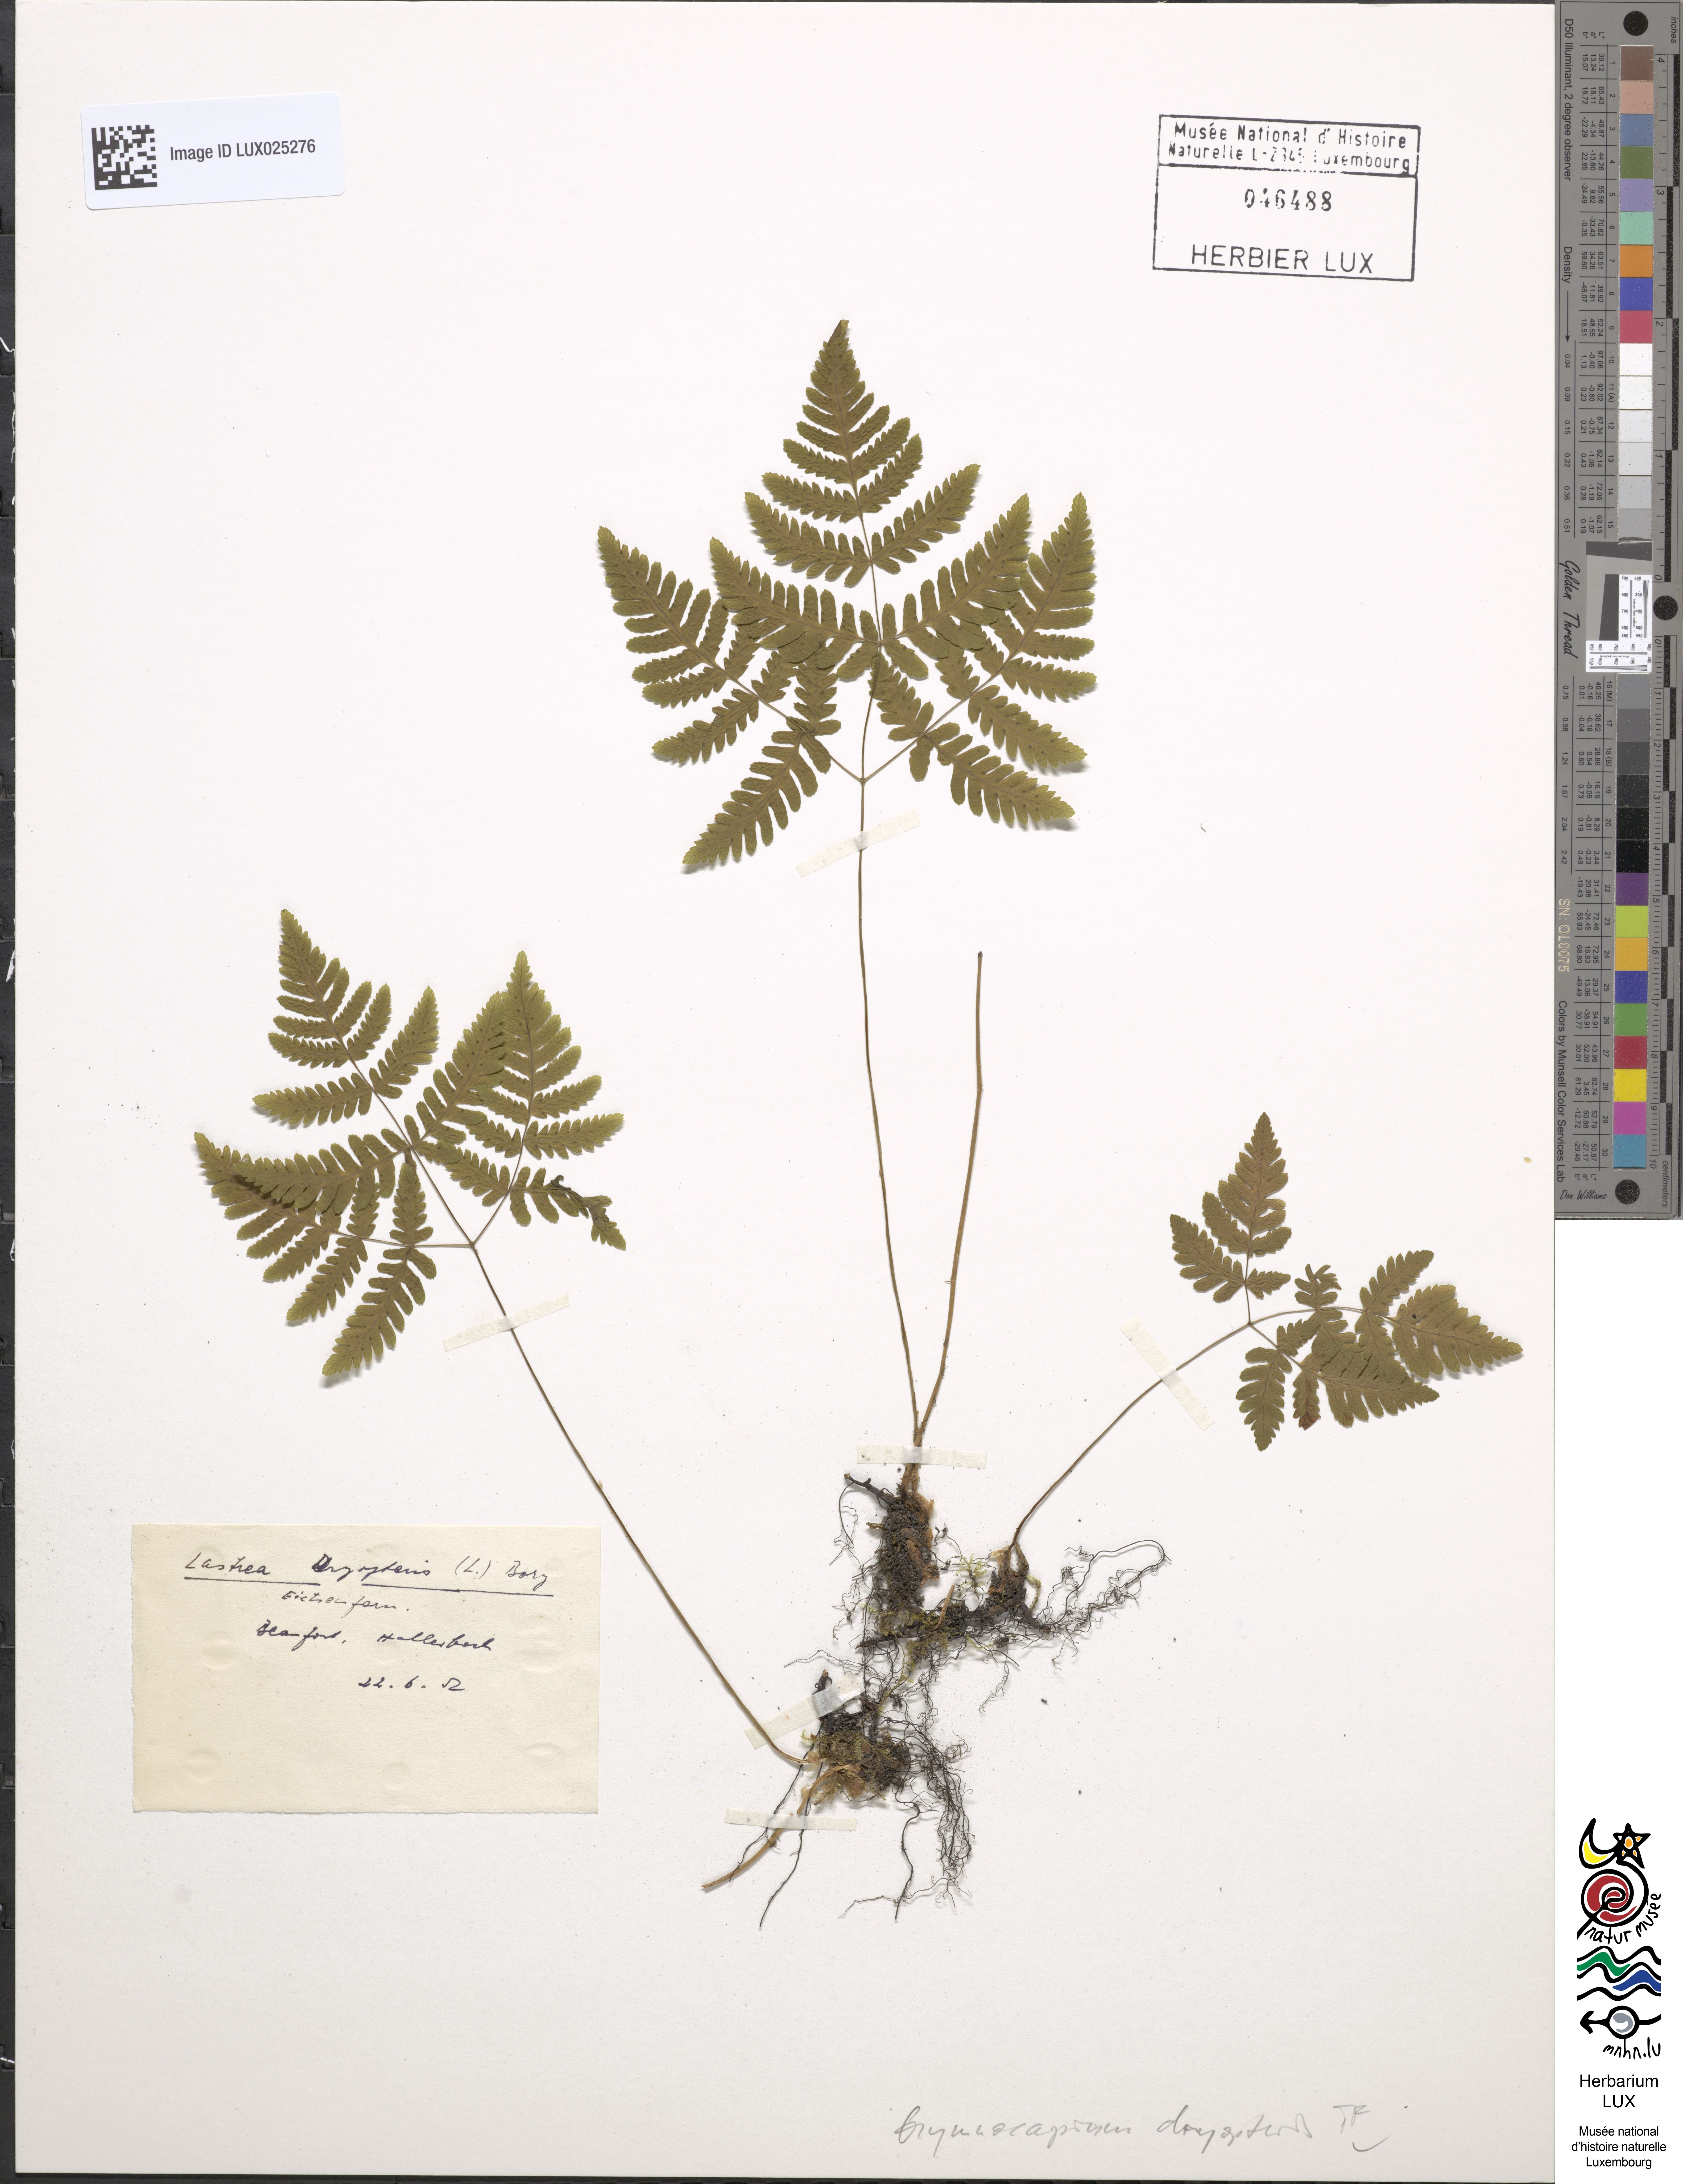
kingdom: Plantae
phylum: Tracheophyta
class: Polypodiopsida
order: Polypodiales
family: Cystopteridaceae
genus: Gymnocarpium
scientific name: Gymnocarpium dryopteris
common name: Oak fern
